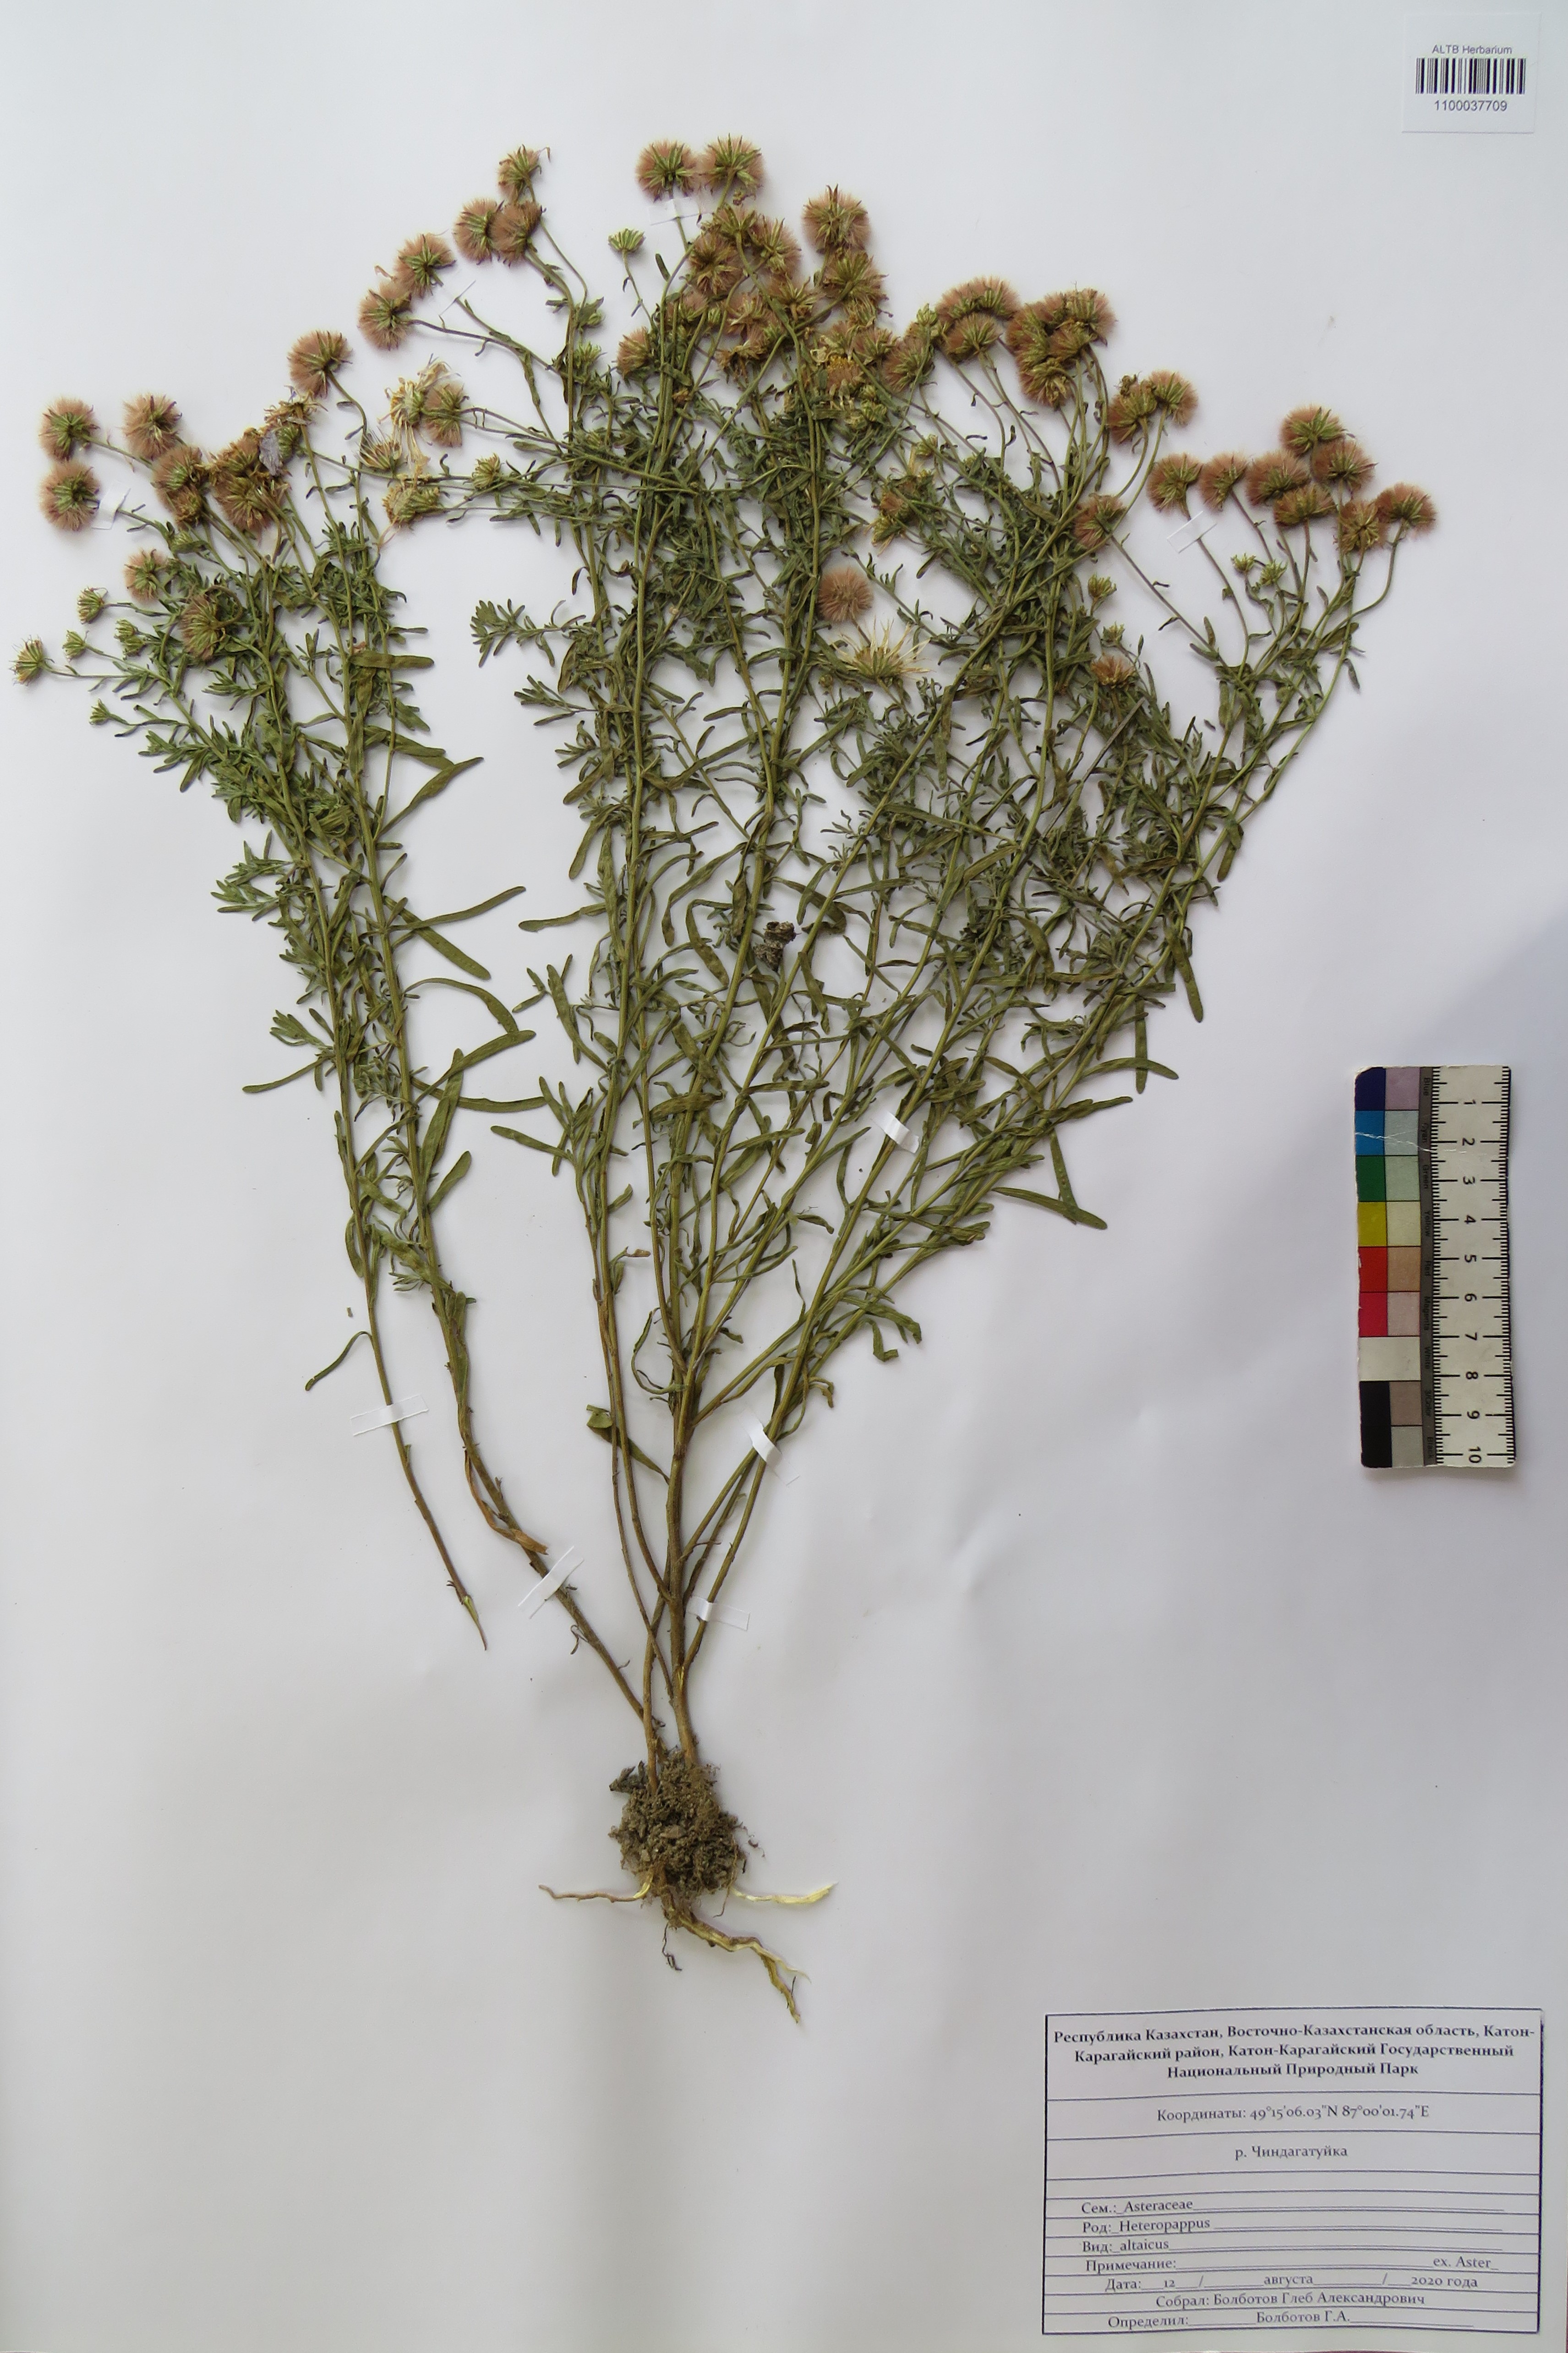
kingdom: Plantae
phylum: Tracheophyta
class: Magnoliopsida
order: Asterales
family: Asteraceae
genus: Heteropappus
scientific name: Heteropappus altaicus
